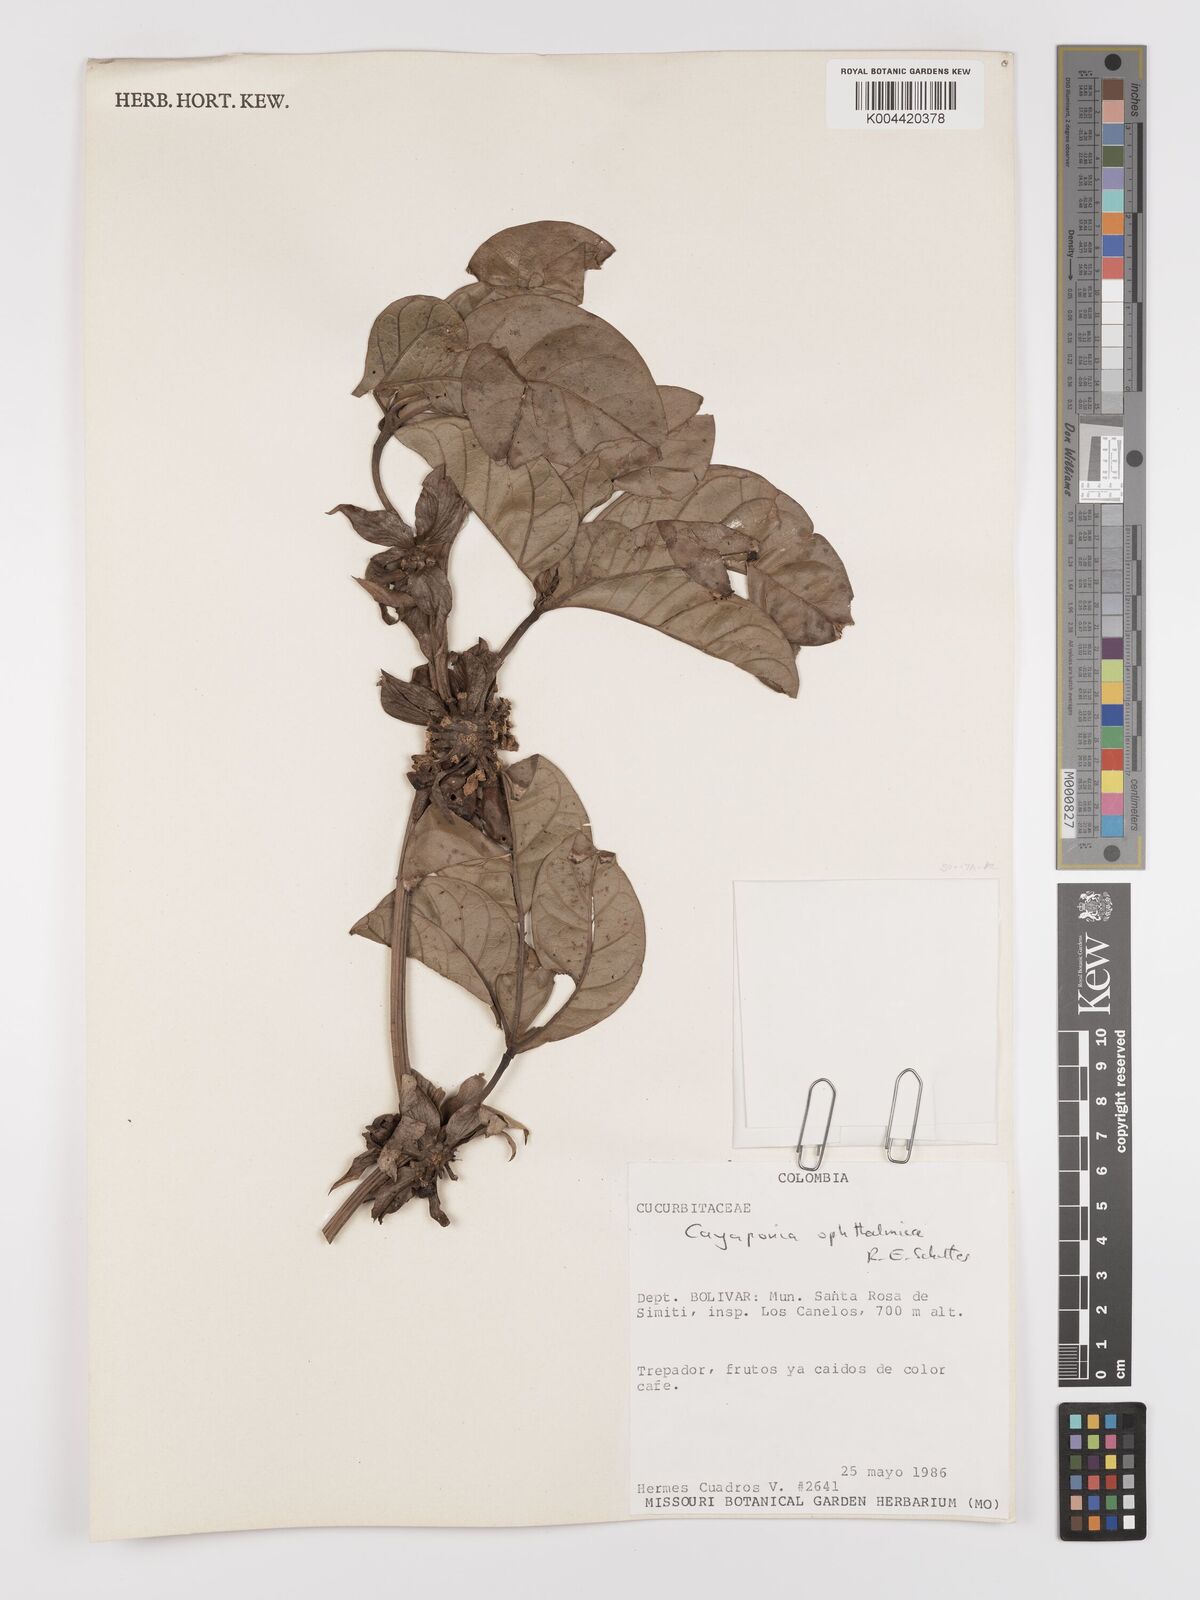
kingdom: Plantae
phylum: Tracheophyta
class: Magnoliopsida
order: Cucurbitales
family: Cucurbitaceae
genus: Cayaponia
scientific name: Cayaponia ophthalmica
